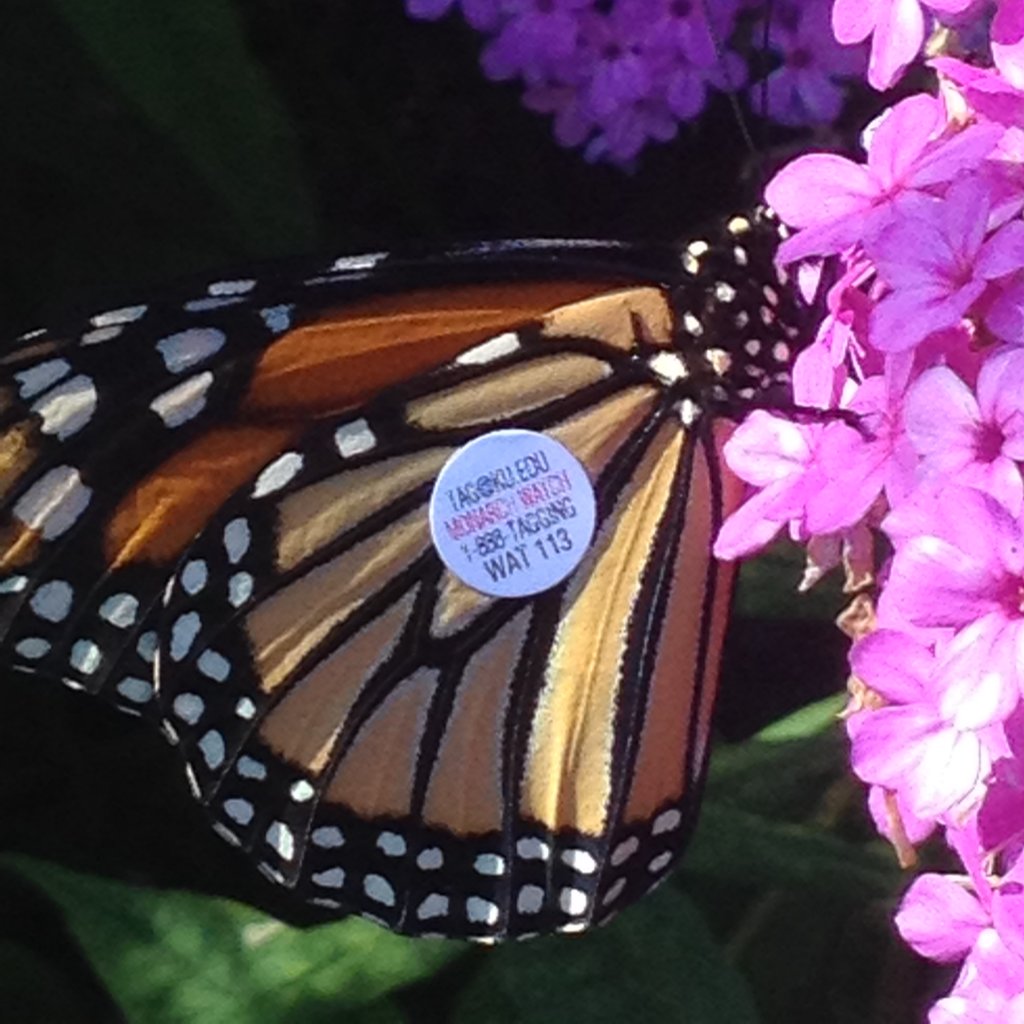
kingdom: Animalia
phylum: Arthropoda
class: Insecta
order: Lepidoptera
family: Nymphalidae
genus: Danaus
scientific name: Danaus plexippus
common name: Monarch
